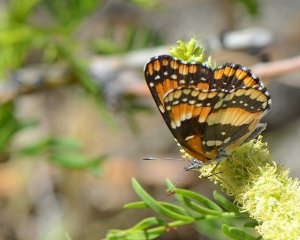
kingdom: Animalia
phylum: Arthropoda
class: Insecta
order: Lepidoptera
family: Nymphalidae
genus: Chlosyne
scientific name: Chlosyne californica
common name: California Patch
